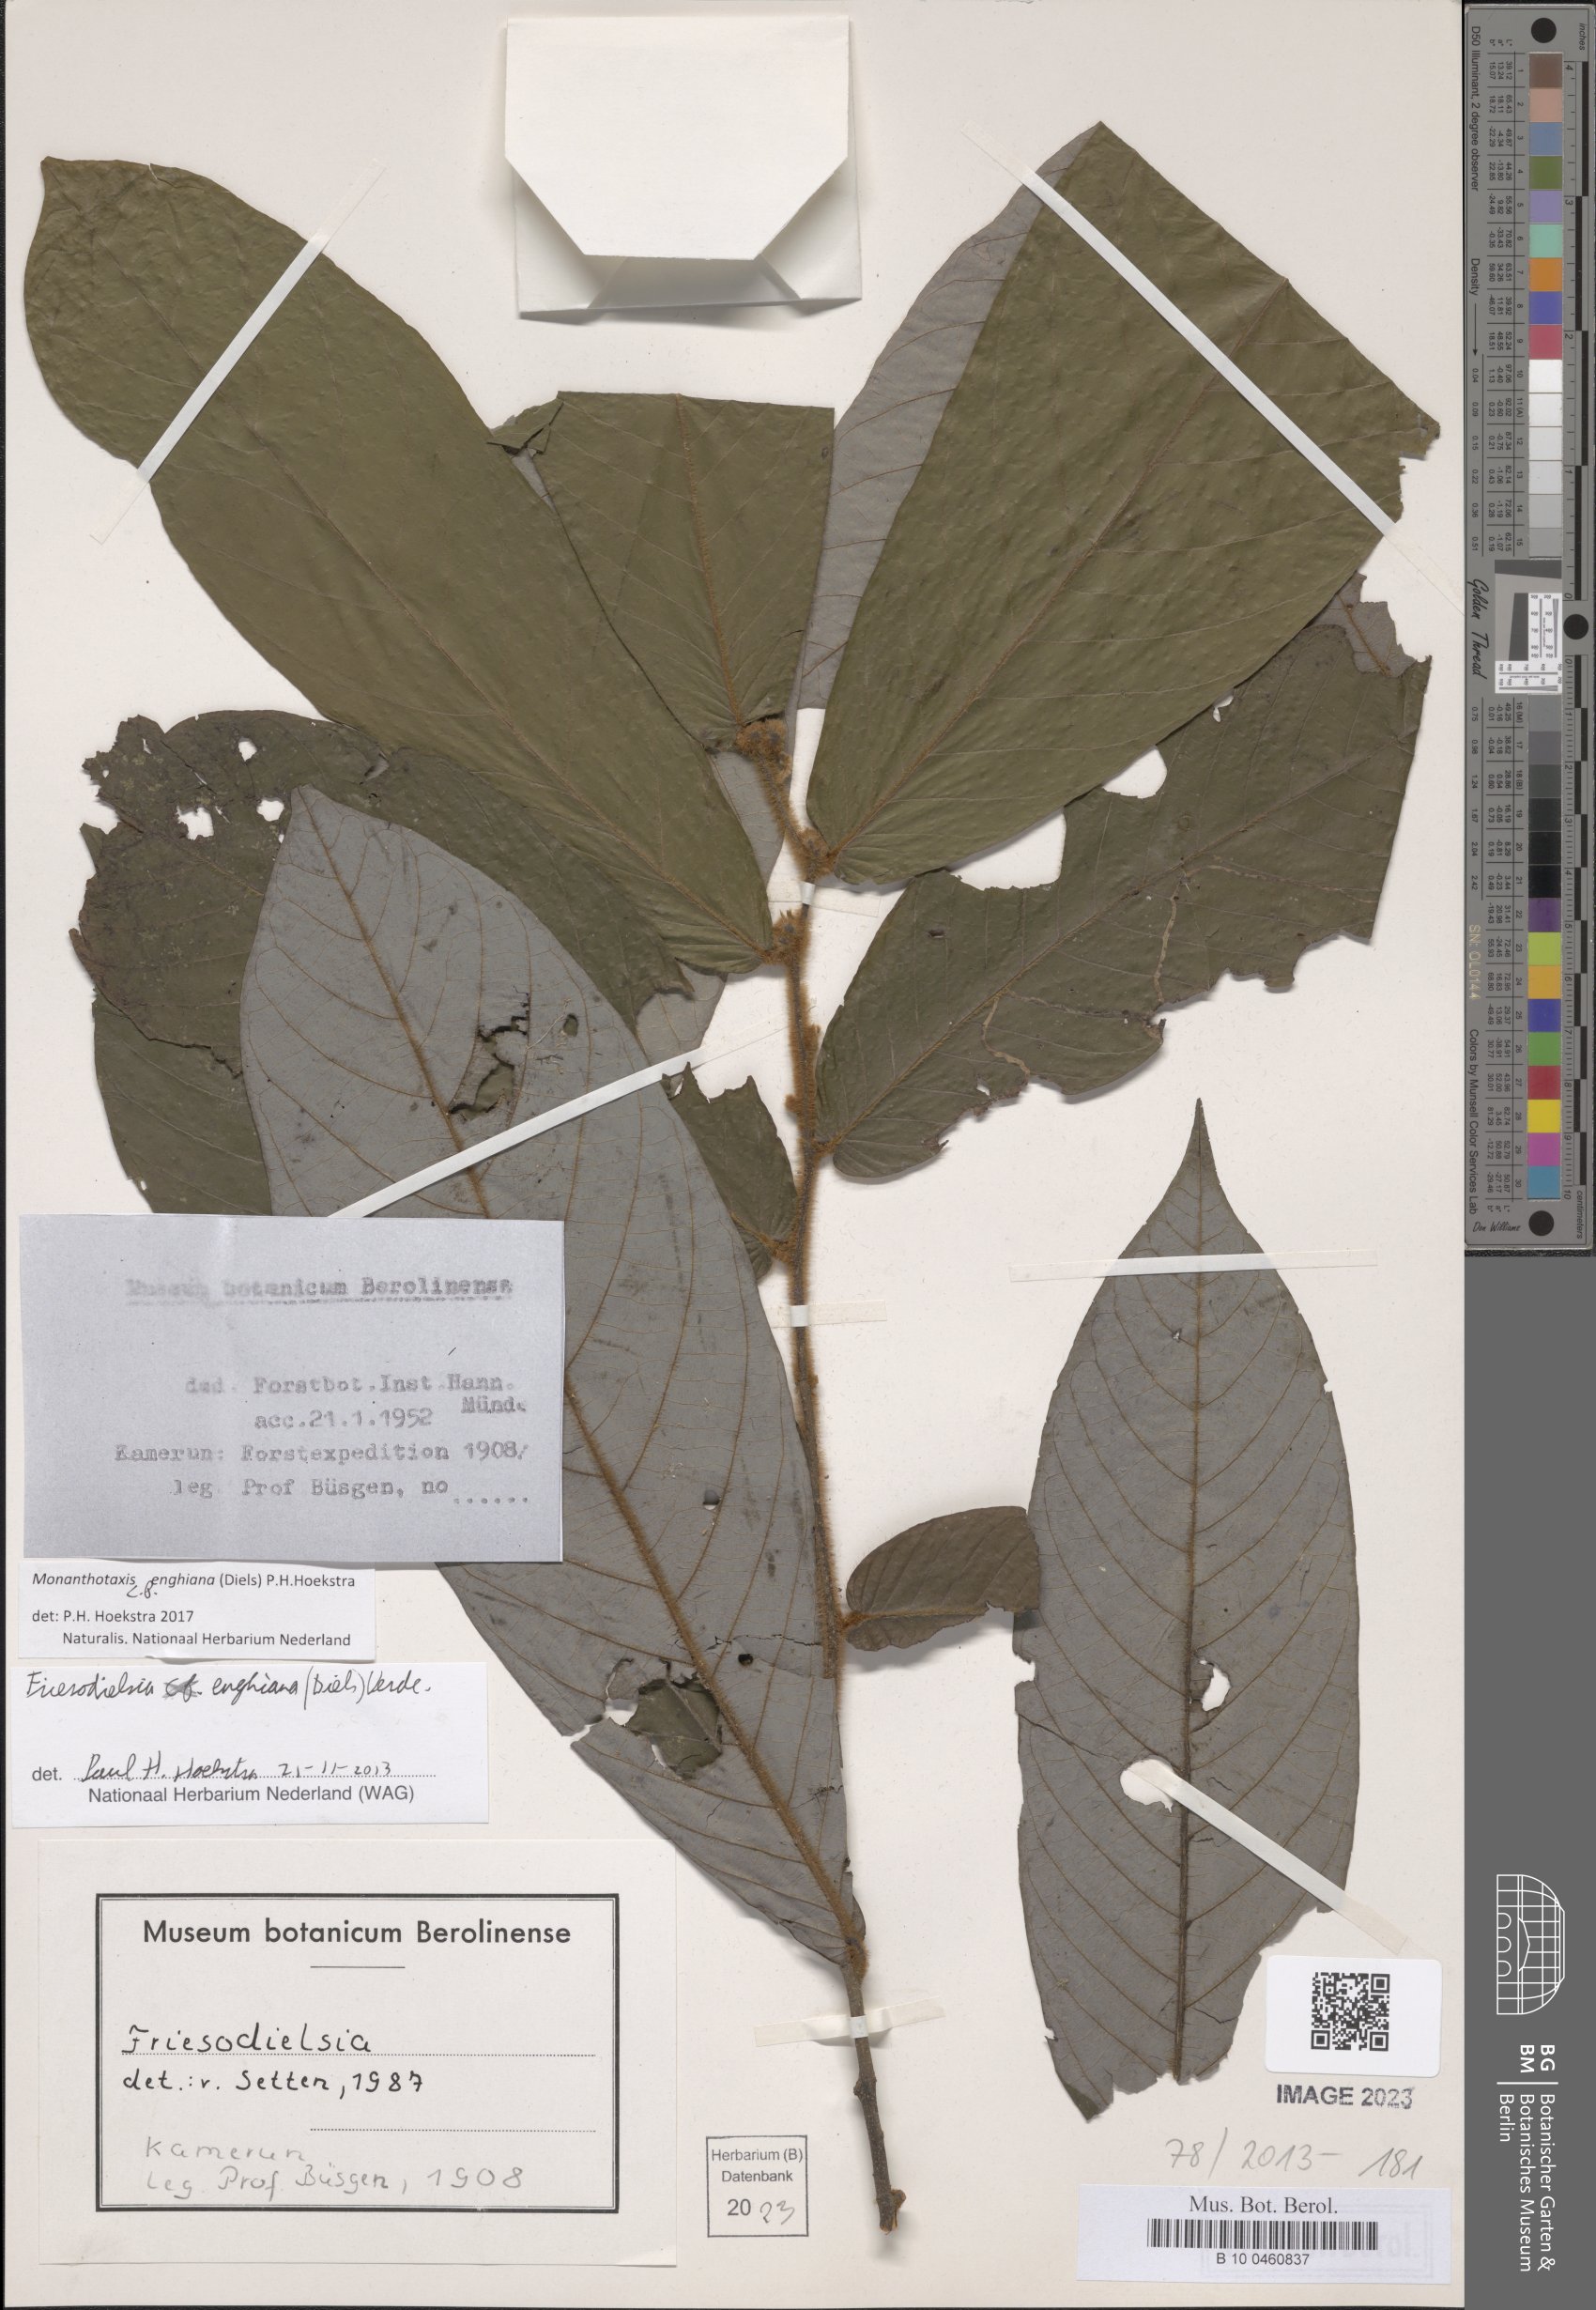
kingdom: Plantae
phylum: Tracheophyta
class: Magnoliopsida
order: Magnoliales
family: Annonaceae
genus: Friesodielsia
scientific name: Friesodielsia enghiana
